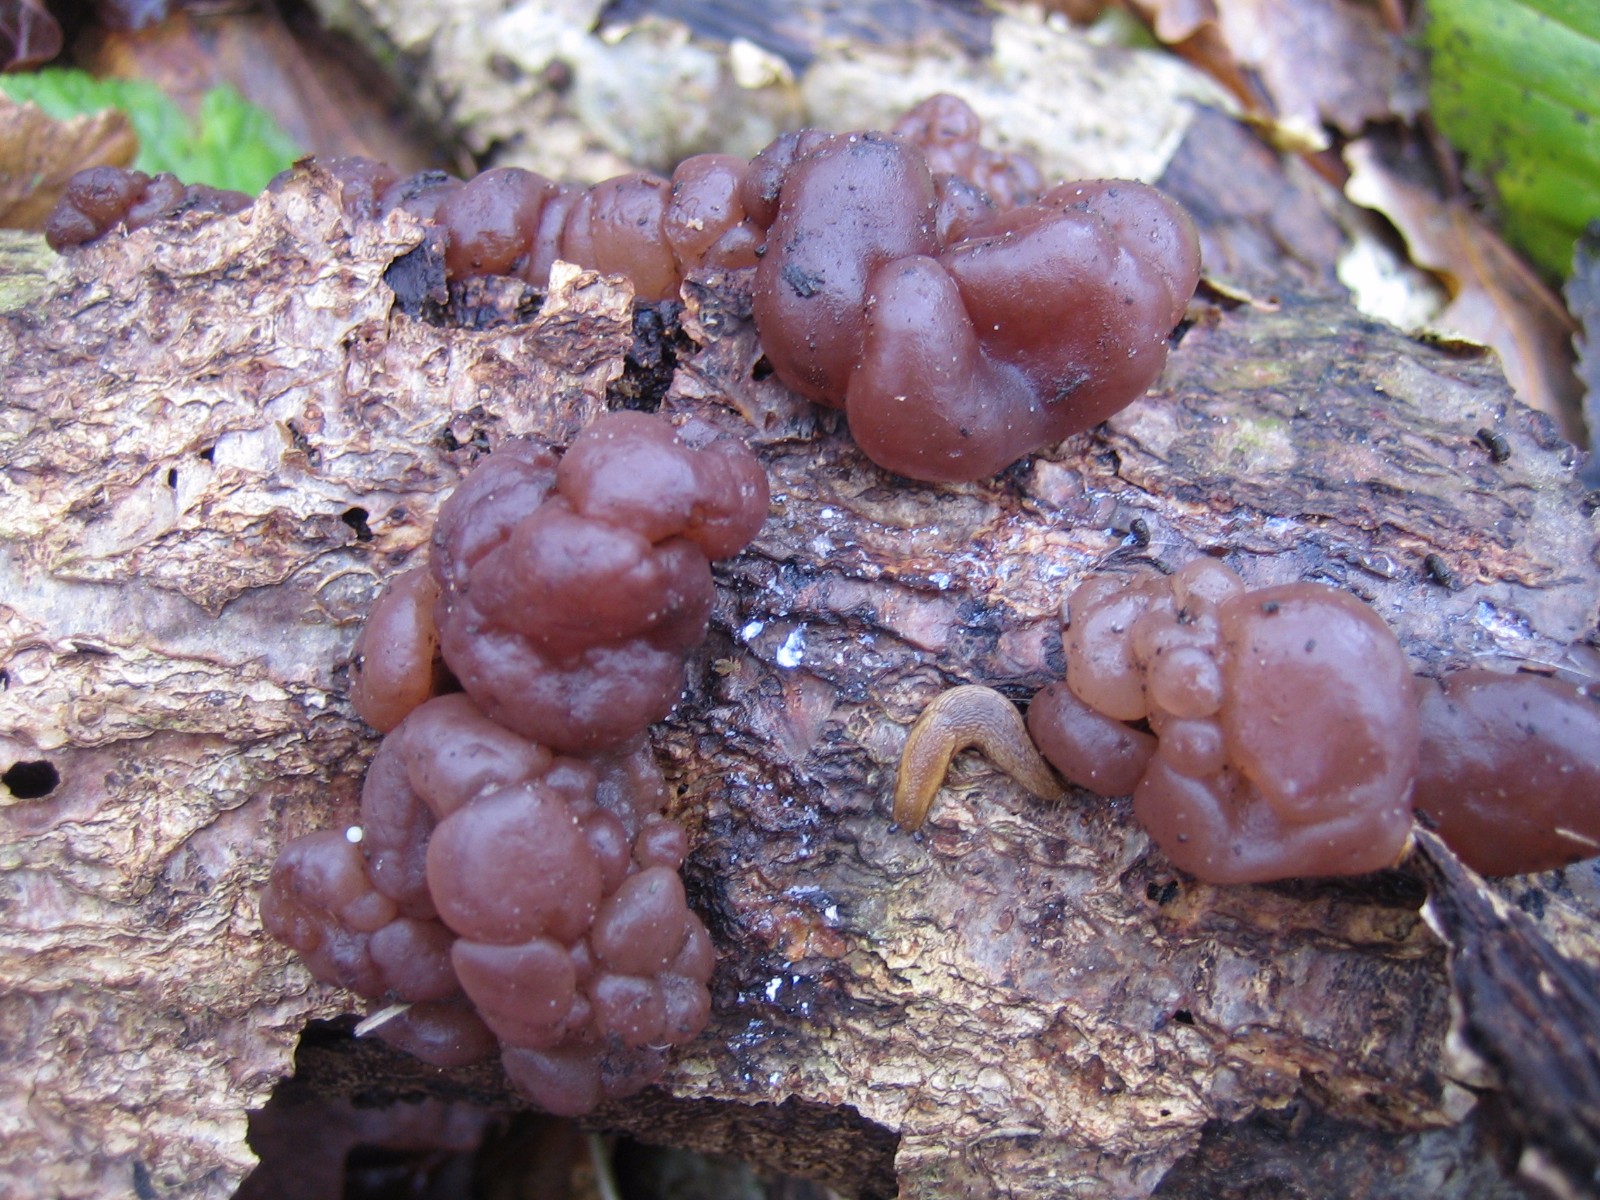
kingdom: Fungi
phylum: Ascomycota
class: Leotiomycetes
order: Helotiales
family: Gelatinodiscaceae
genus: Ascotremella
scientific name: Ascotremella faginea
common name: hjerne-bævreskive
